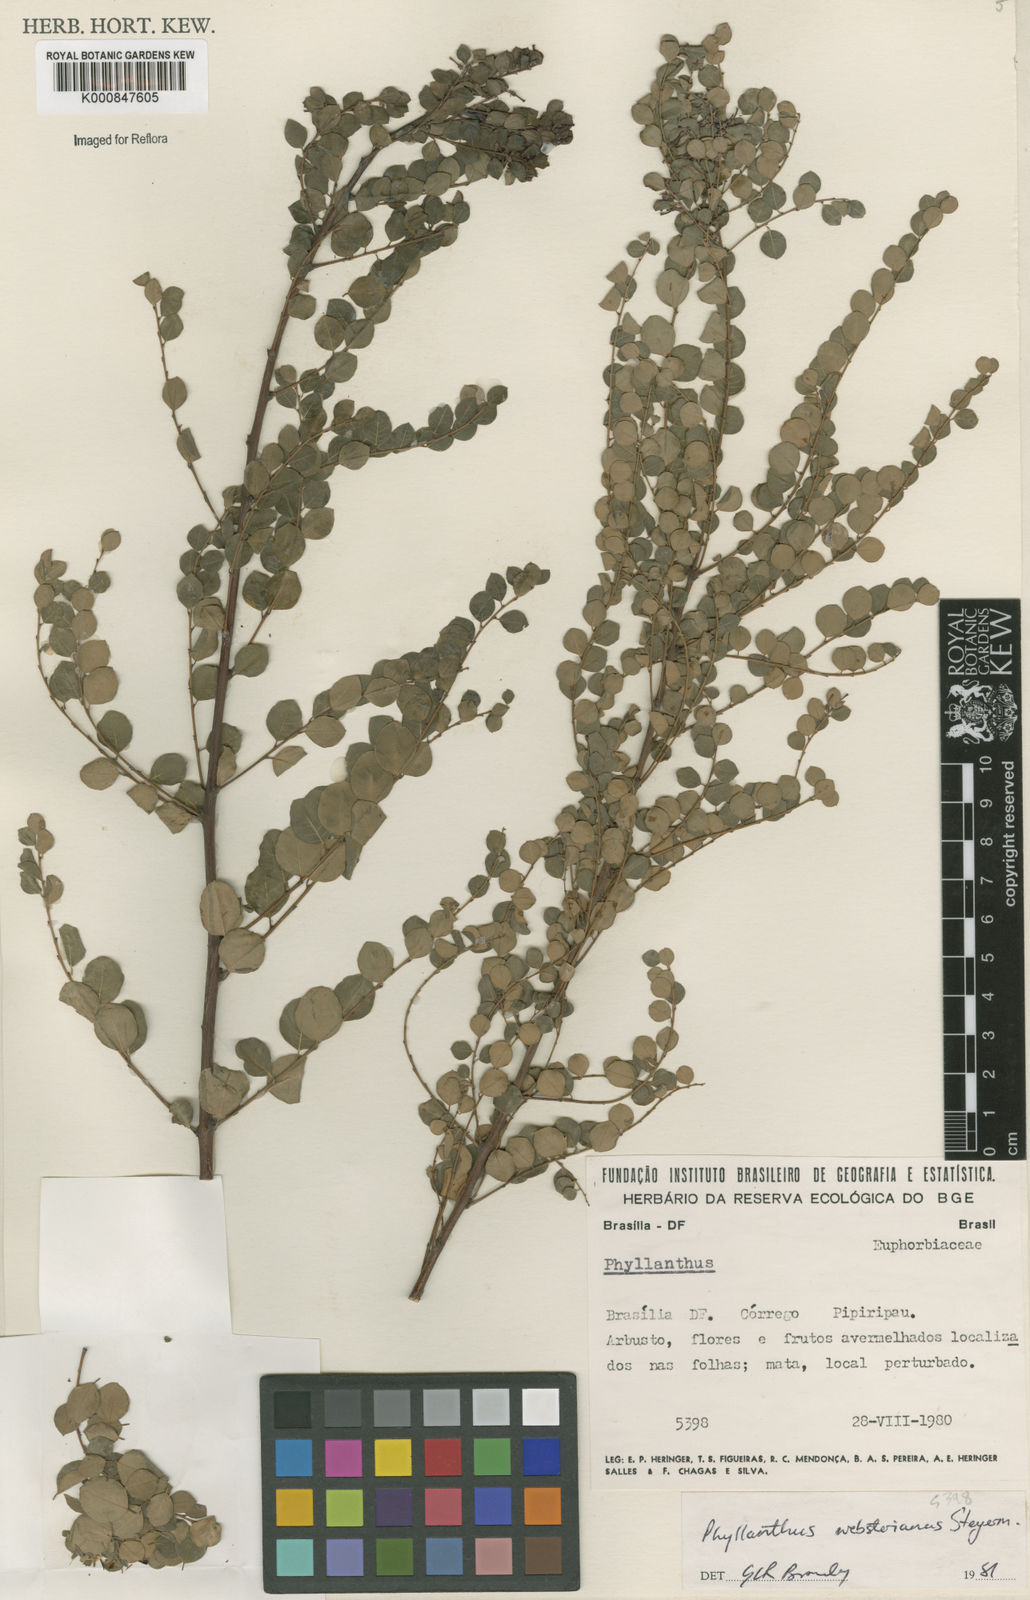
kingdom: Plantae
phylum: Tracheophyta
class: Magnoliopsida
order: Malpighiales
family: Phyllanthaceae
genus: Phyllanthus
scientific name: Phyllanthus websterianus
